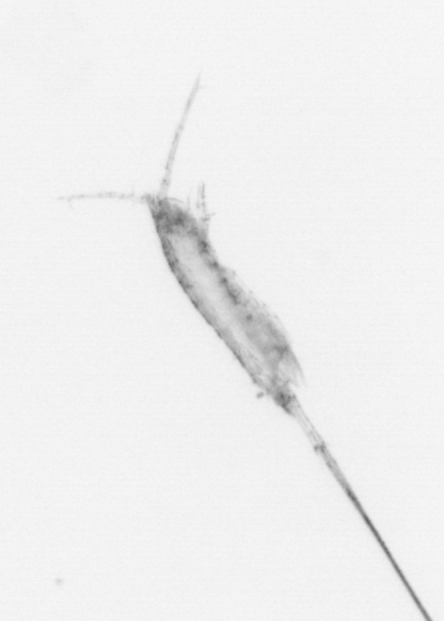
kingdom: Animalia
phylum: Arthropoda
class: Copepoda
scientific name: Copepoda
